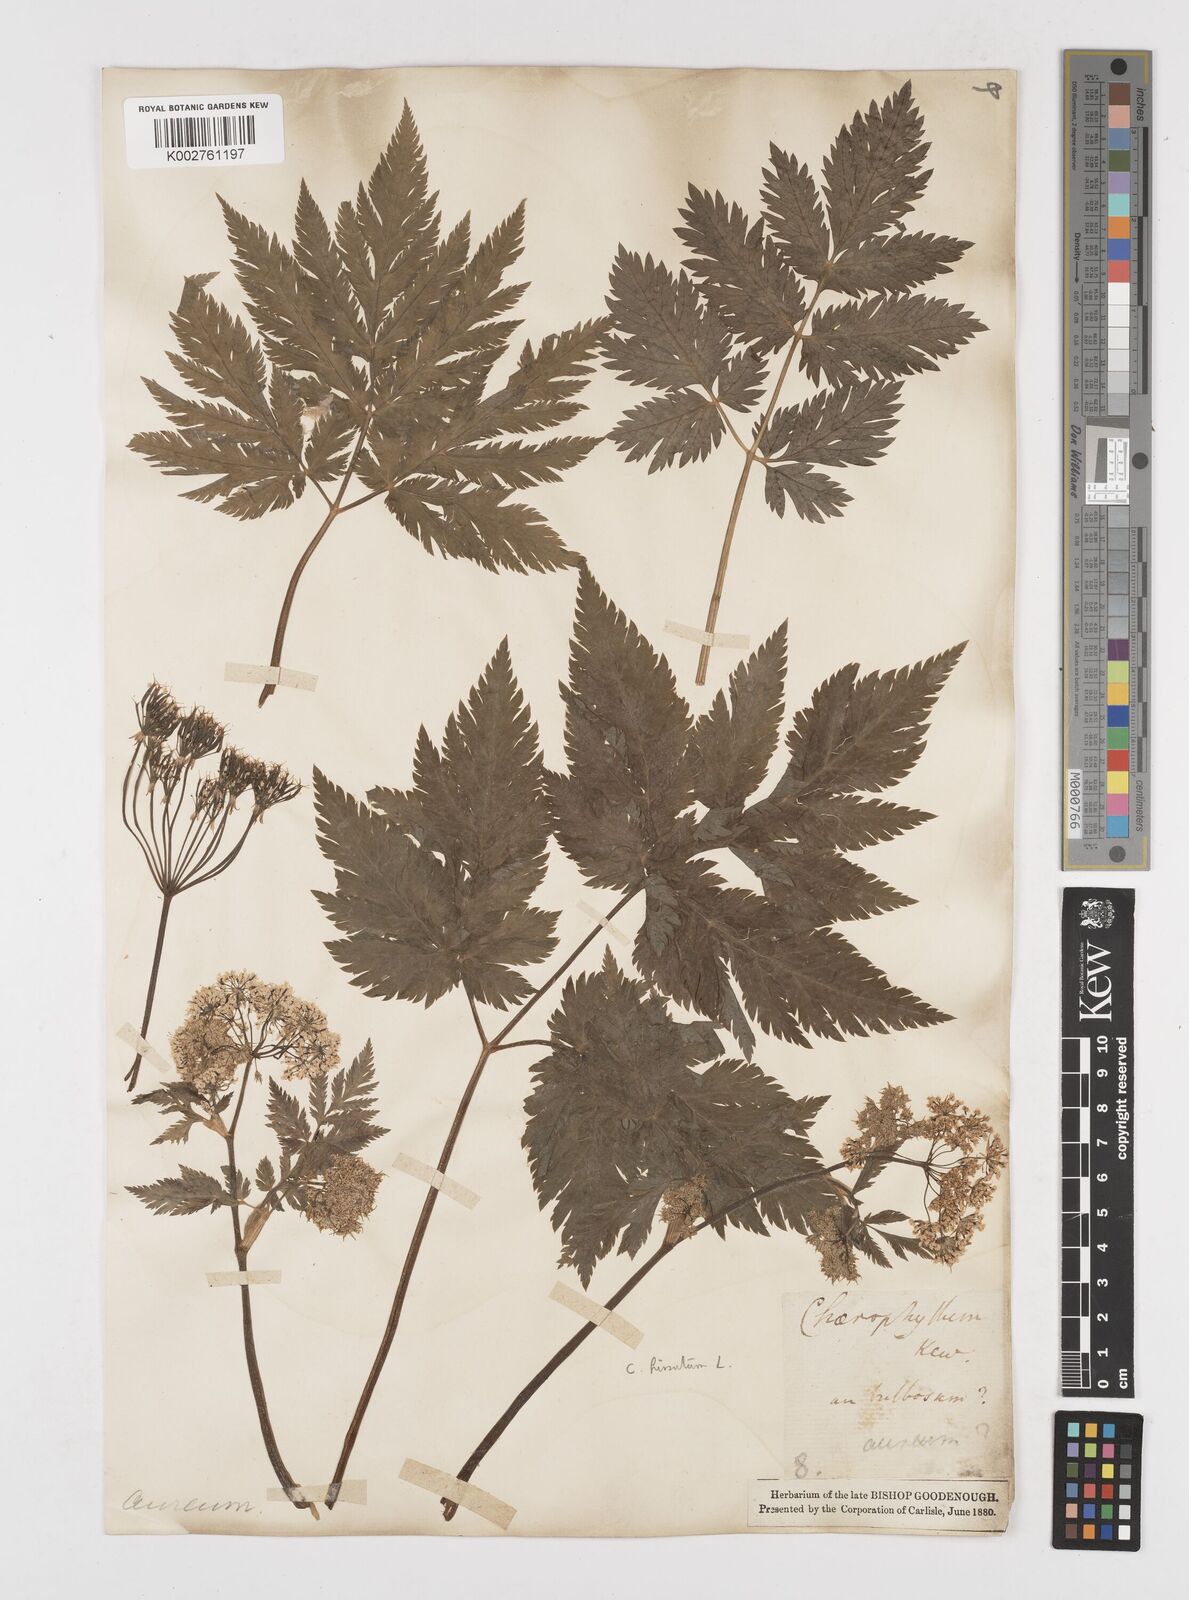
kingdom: Plantae
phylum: Tracheophyta
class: Magnoliopsida
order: Apiales
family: Apiaceae
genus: Chaerophyllum
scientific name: Chaerophyllum hirsutum
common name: Hairy chervil
